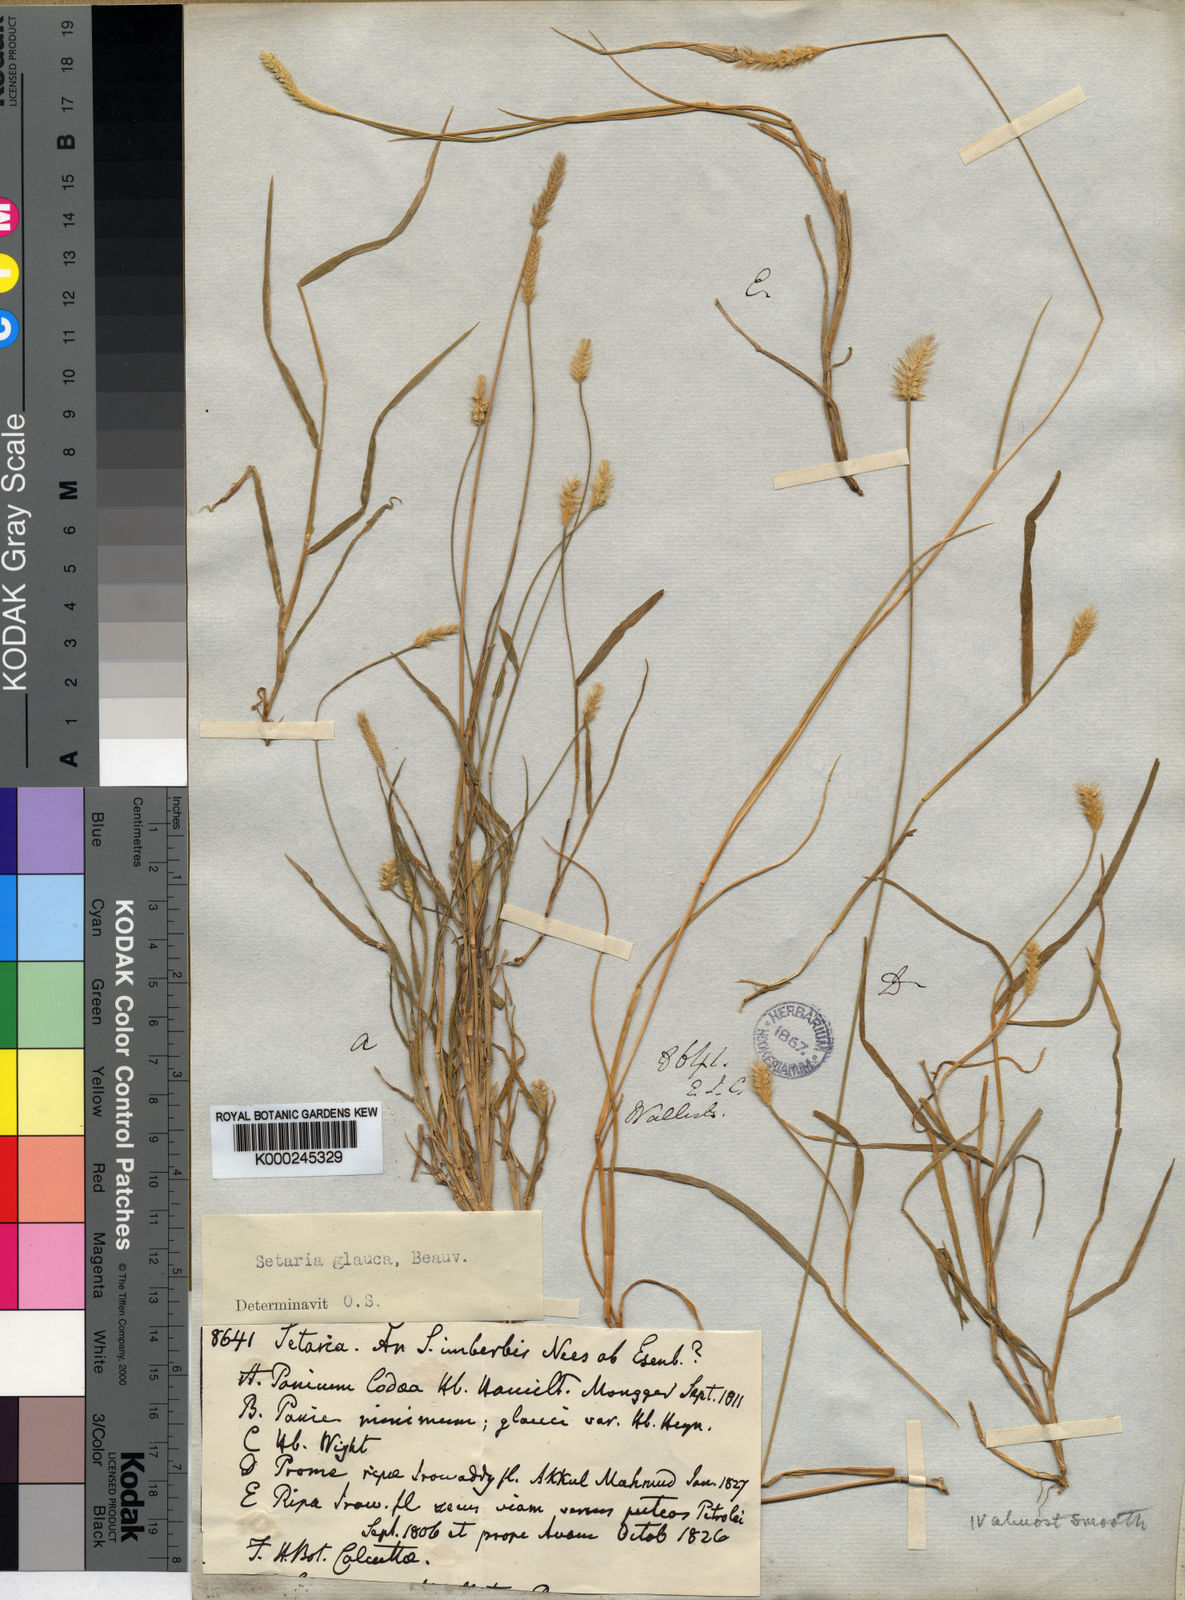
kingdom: Plantae
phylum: Tracheophyta
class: Liliopsida
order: Poales
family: Poaceae
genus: Setaria
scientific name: Setaria pumila
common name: Yellow bristle-grass
